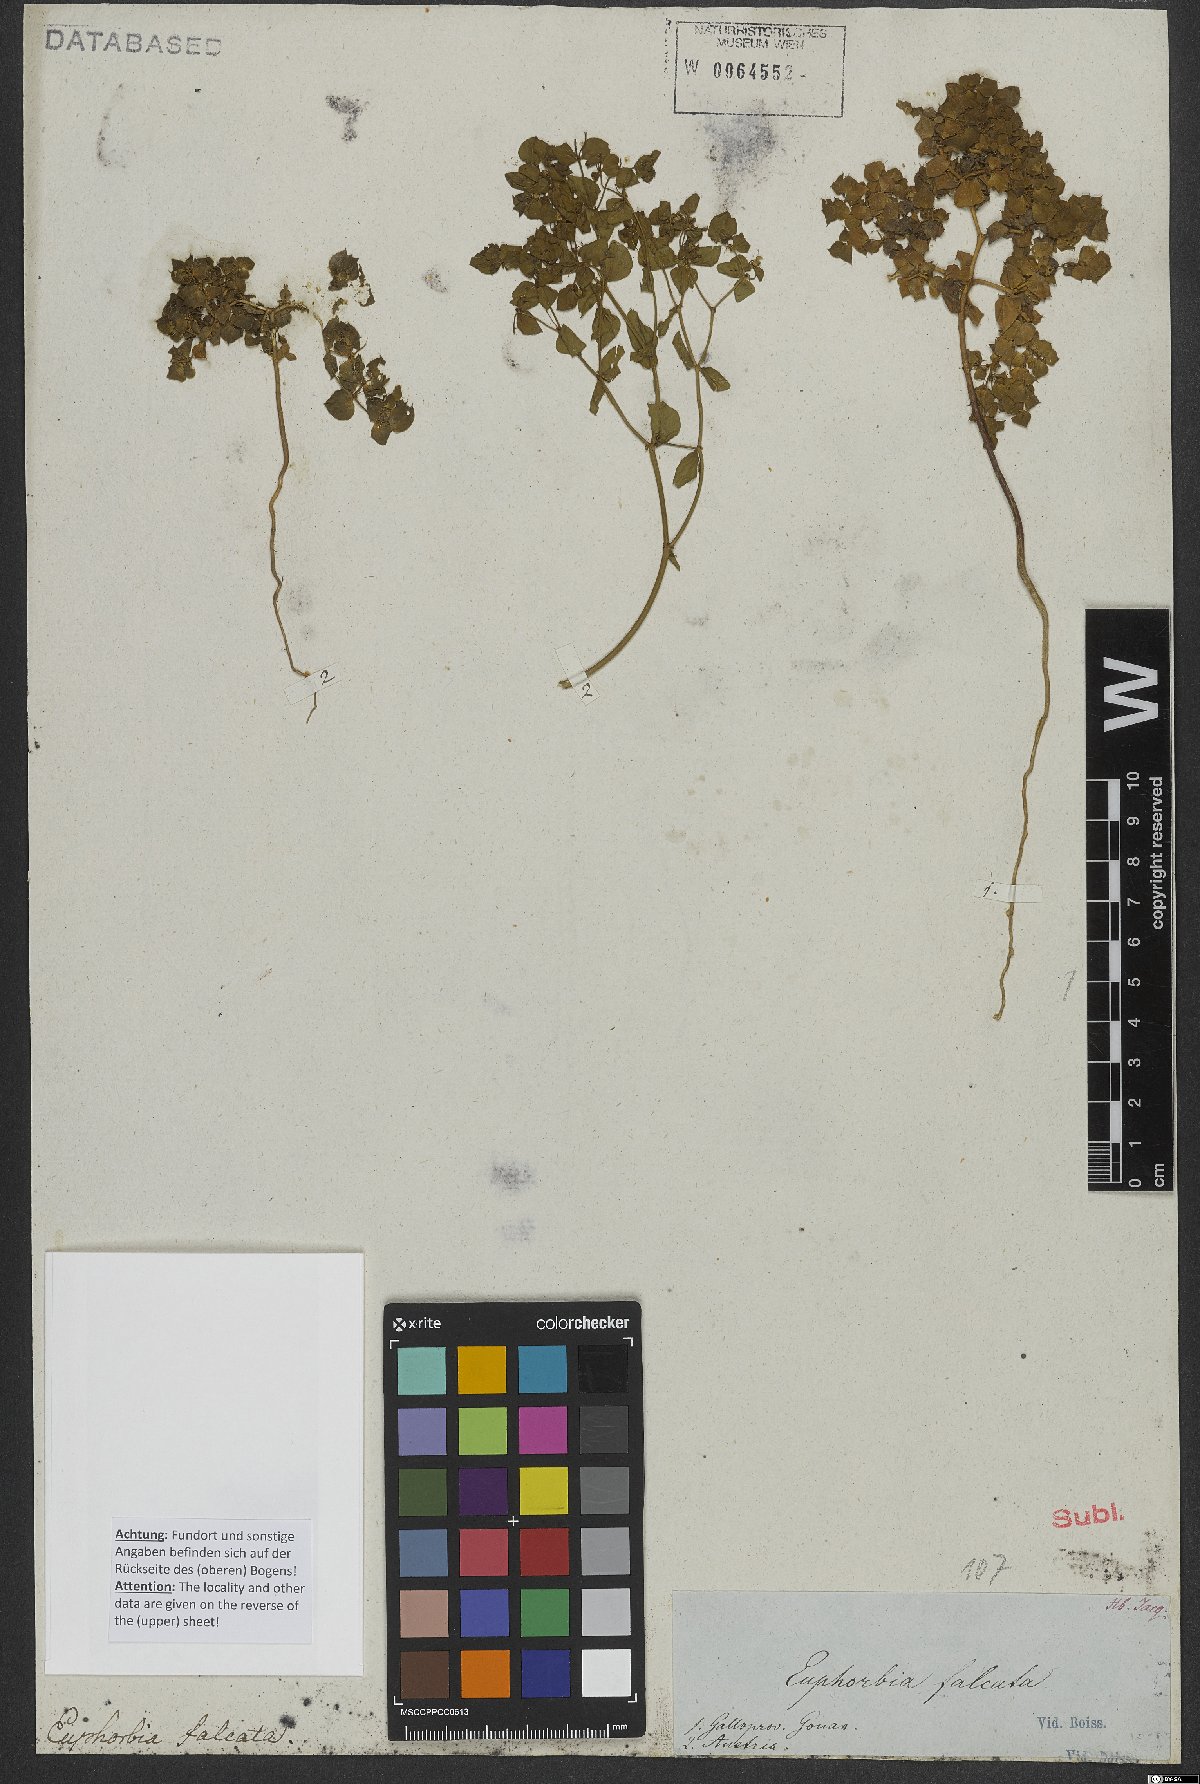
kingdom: Plantae
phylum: Tracheophyta
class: Magnoliopsida
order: Malpighiales
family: Euphorbiaceae
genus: Euphorbia
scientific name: Euphorbia falcata
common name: Sickle spurge
